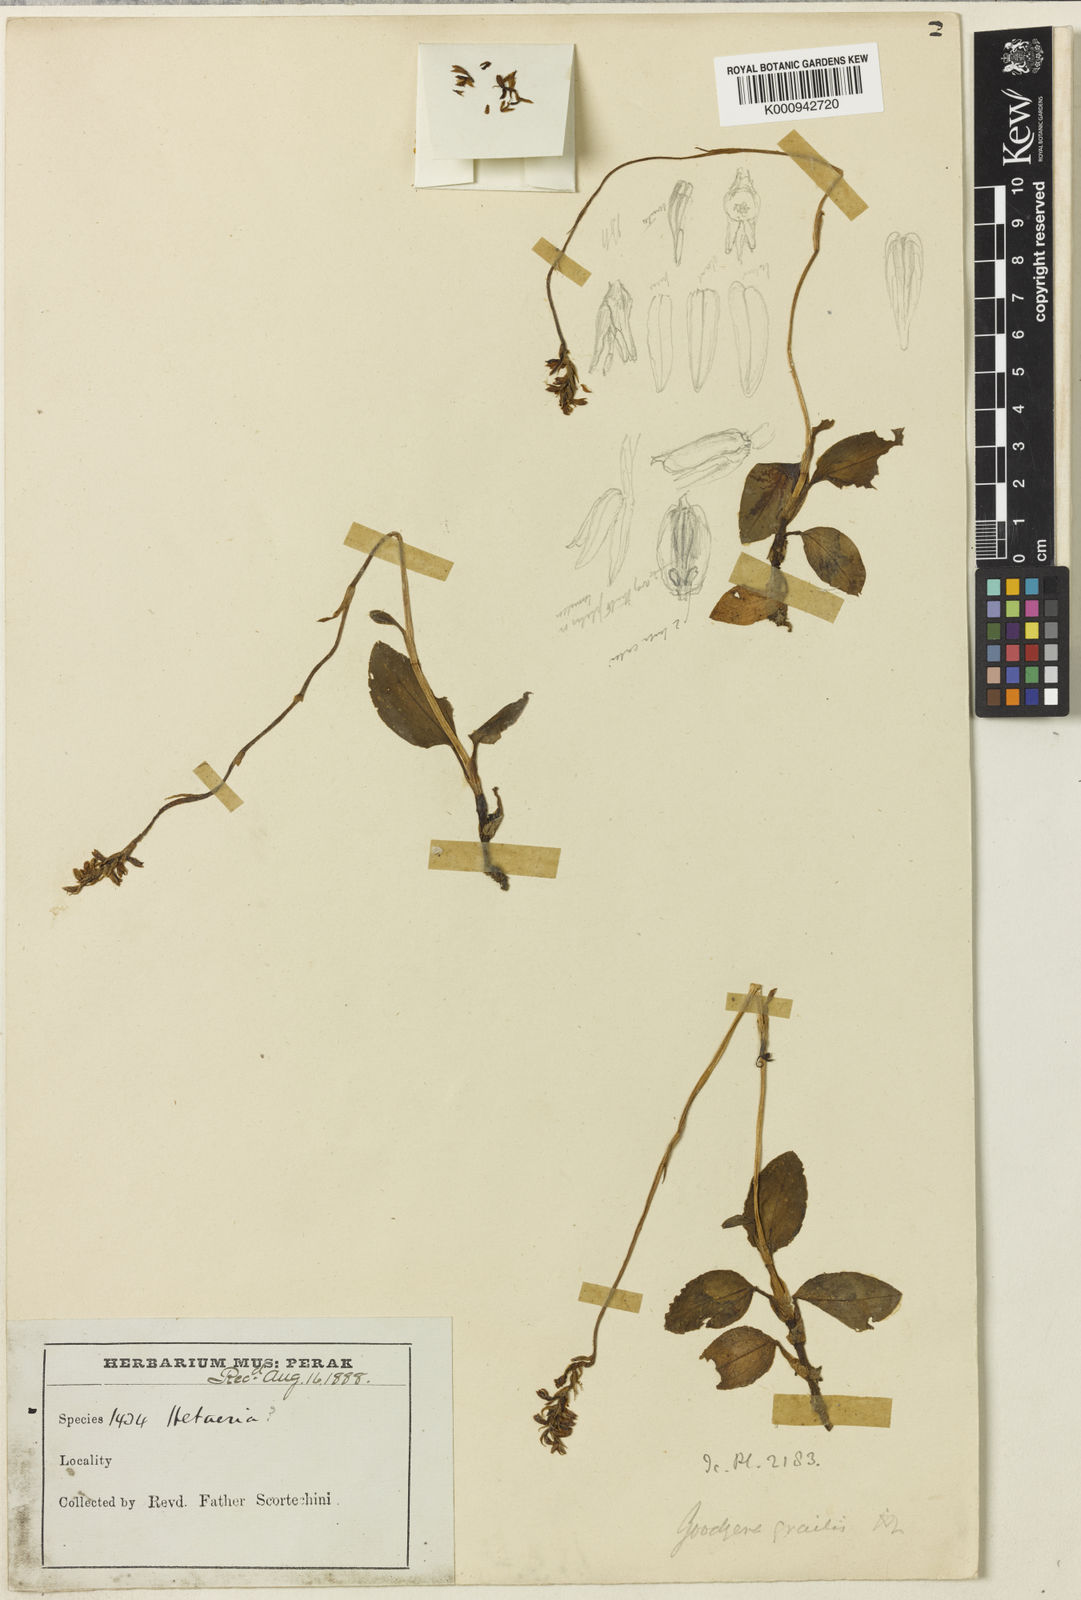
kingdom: Plantae
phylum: Tracheophyta
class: Liliopsida
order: Asparagales
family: Orchidaceae
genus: Cystorchis
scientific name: Cystorchis gracilis
